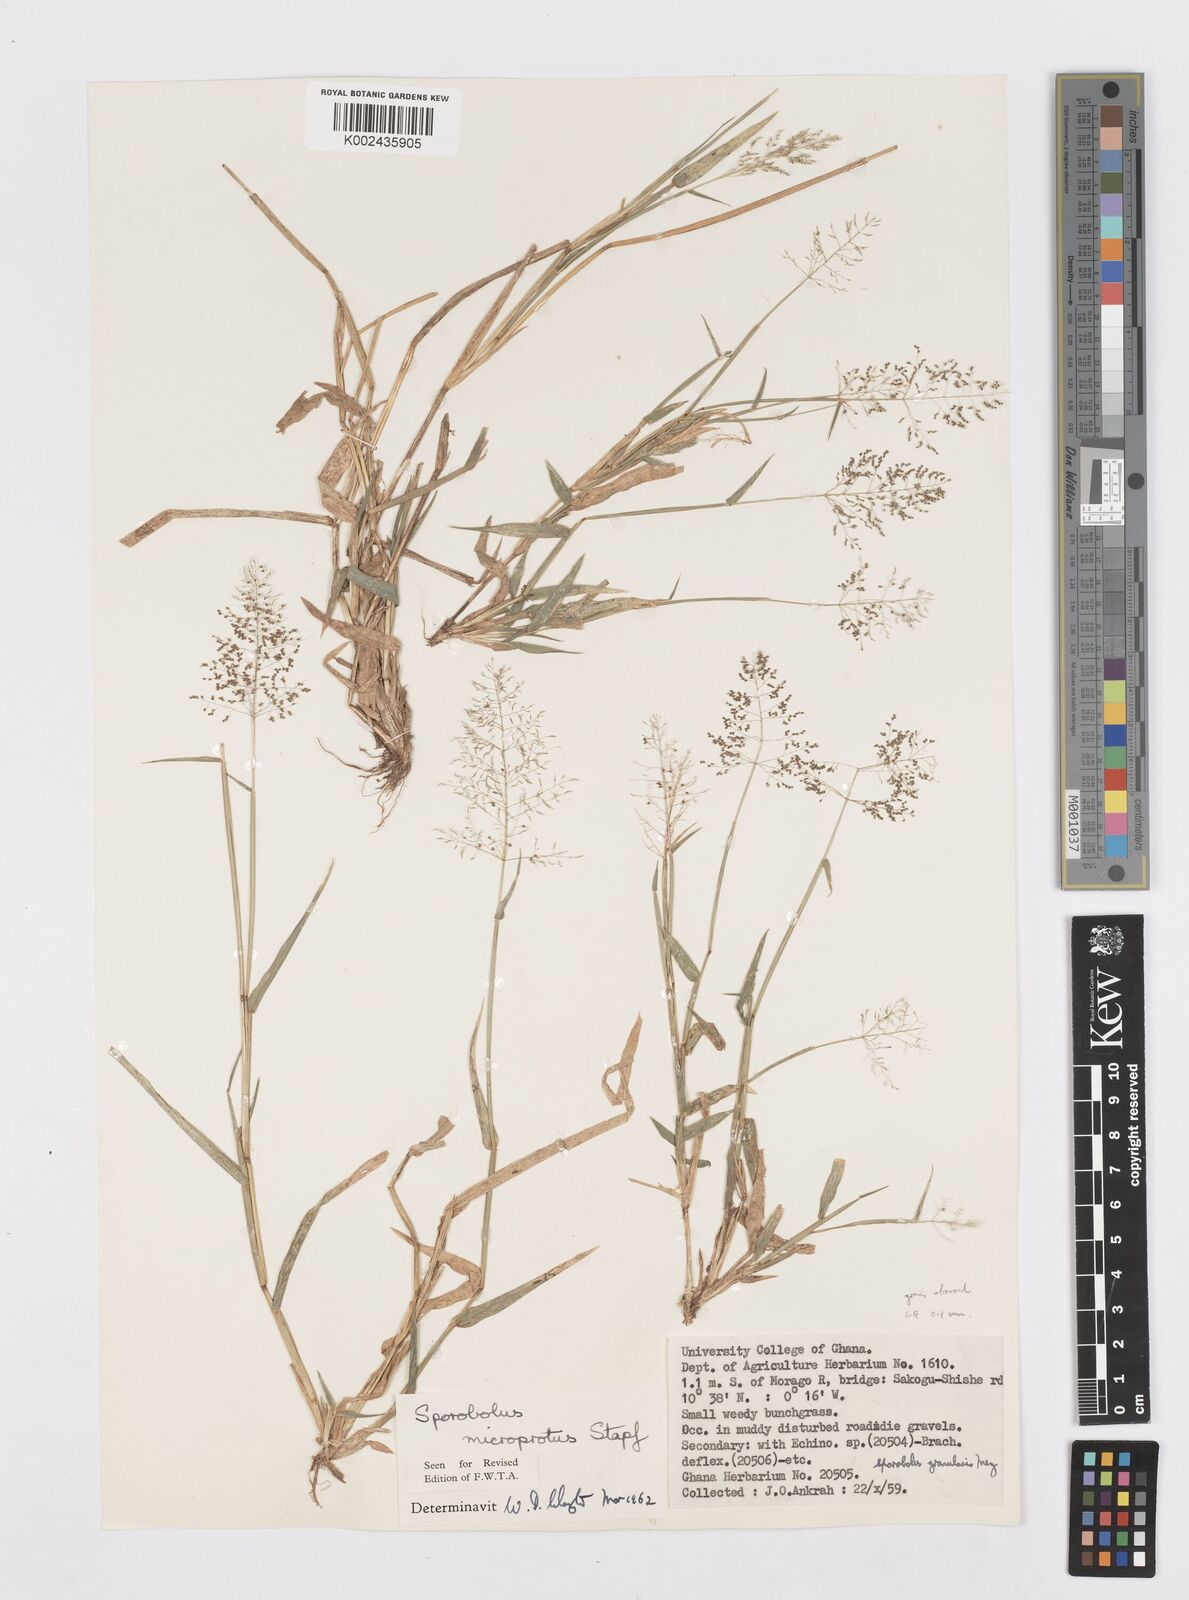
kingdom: Plantae
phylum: Tracheophyta
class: Liliopsida
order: Poales
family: Poaceae
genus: Sporobolus
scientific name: Sporobolus microprotus
